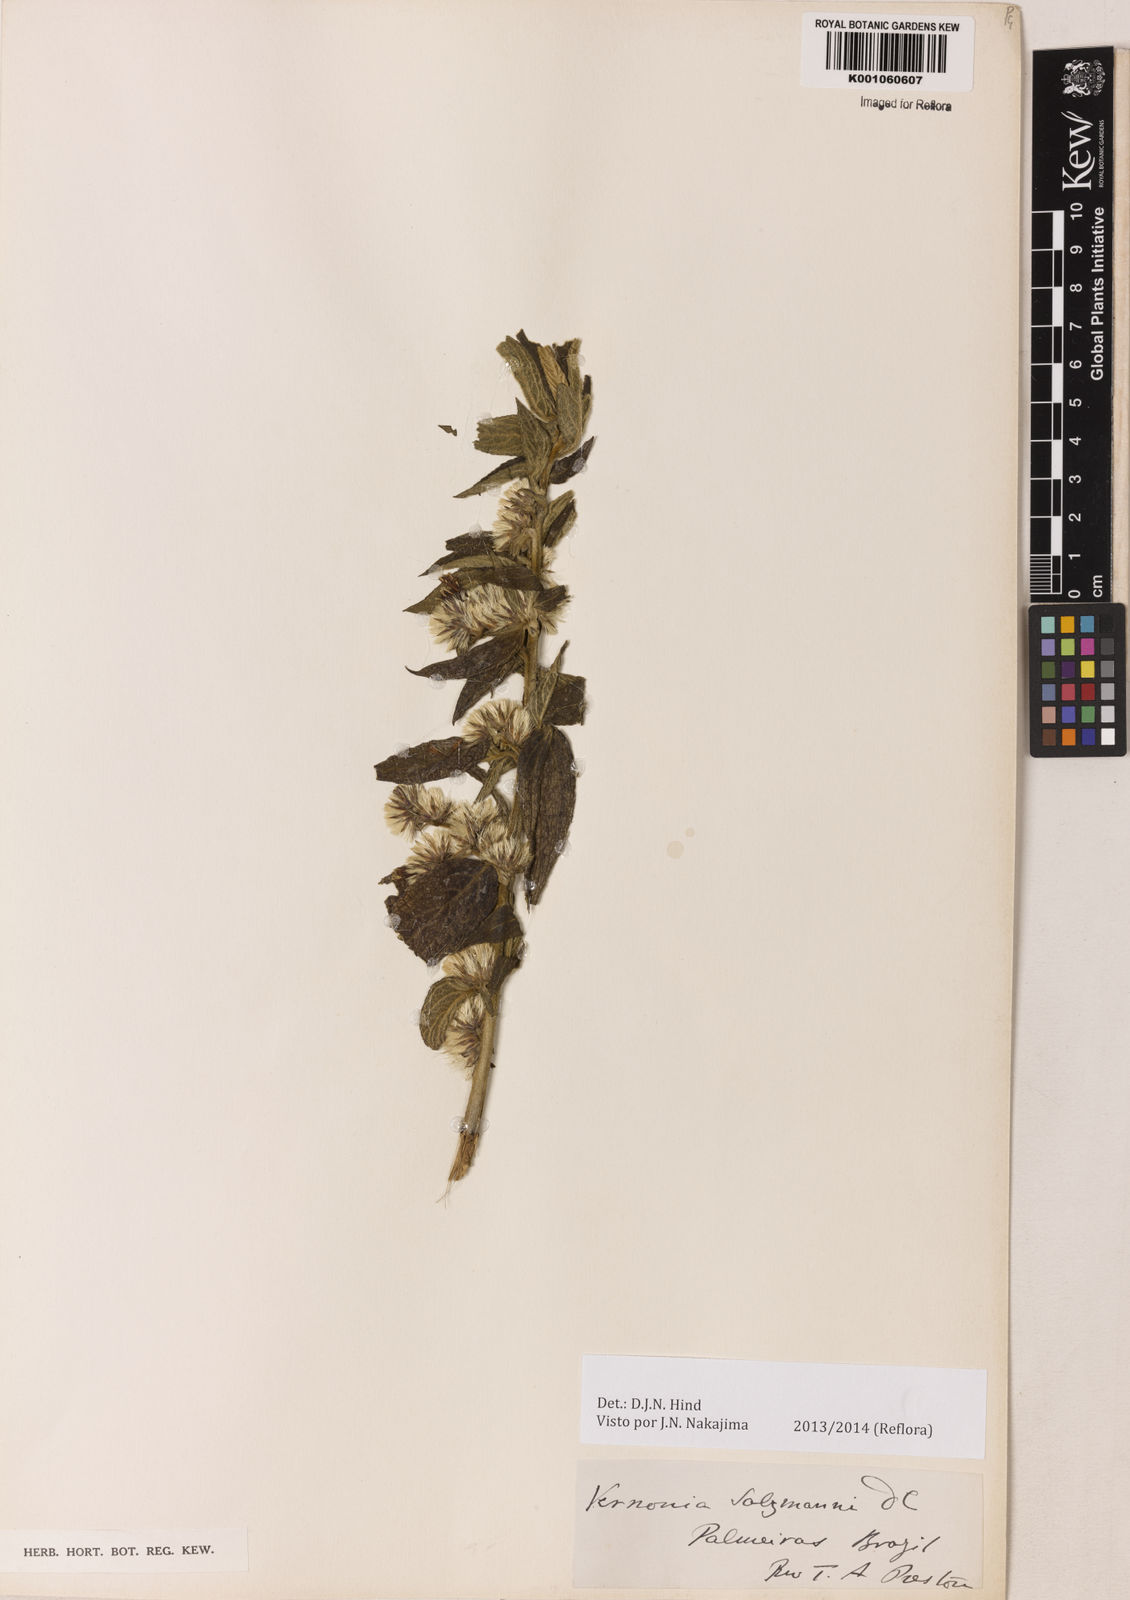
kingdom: Plantae
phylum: Tracheophyta
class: Magnoliopsida
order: Asterales
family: Asteraceae
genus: Lepidaploa
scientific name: Lepidaploa salzmannii
